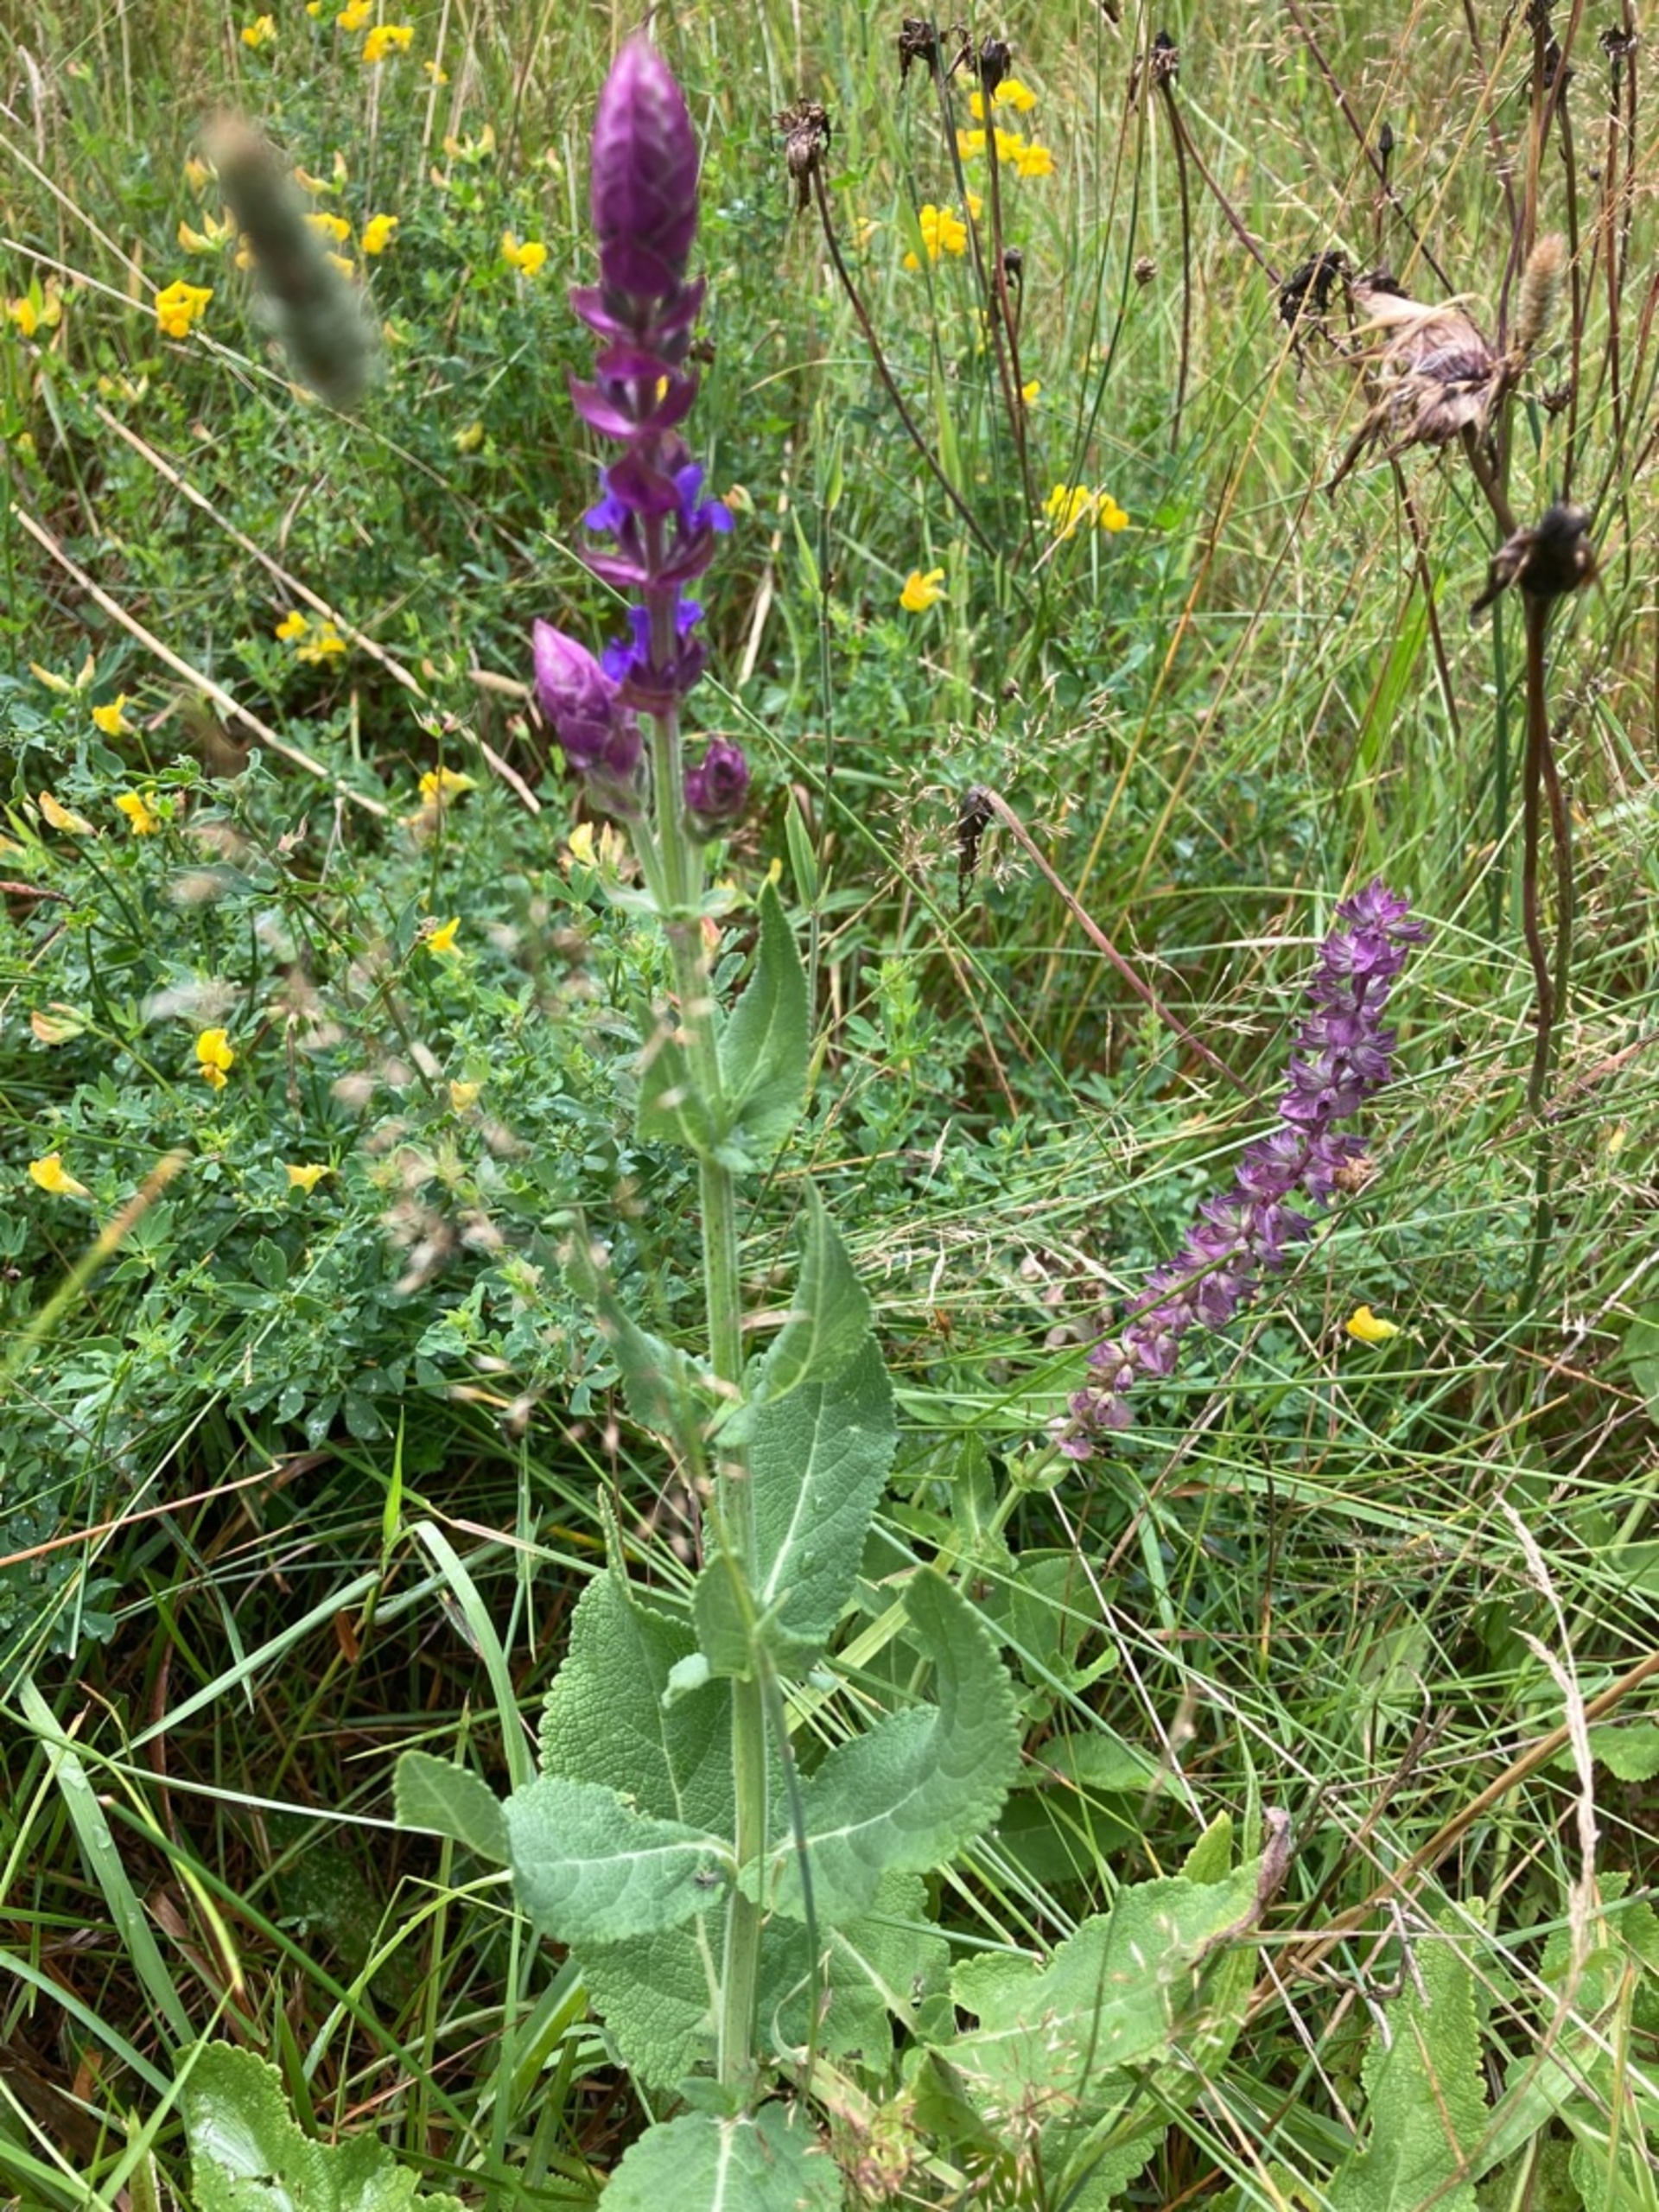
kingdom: Plantae
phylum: Tracheophyta
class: Magnoliopsida
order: Lamiales
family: Lamiaceae
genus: Salvia
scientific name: Salvia nemorosa
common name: Småblomstret salvie
